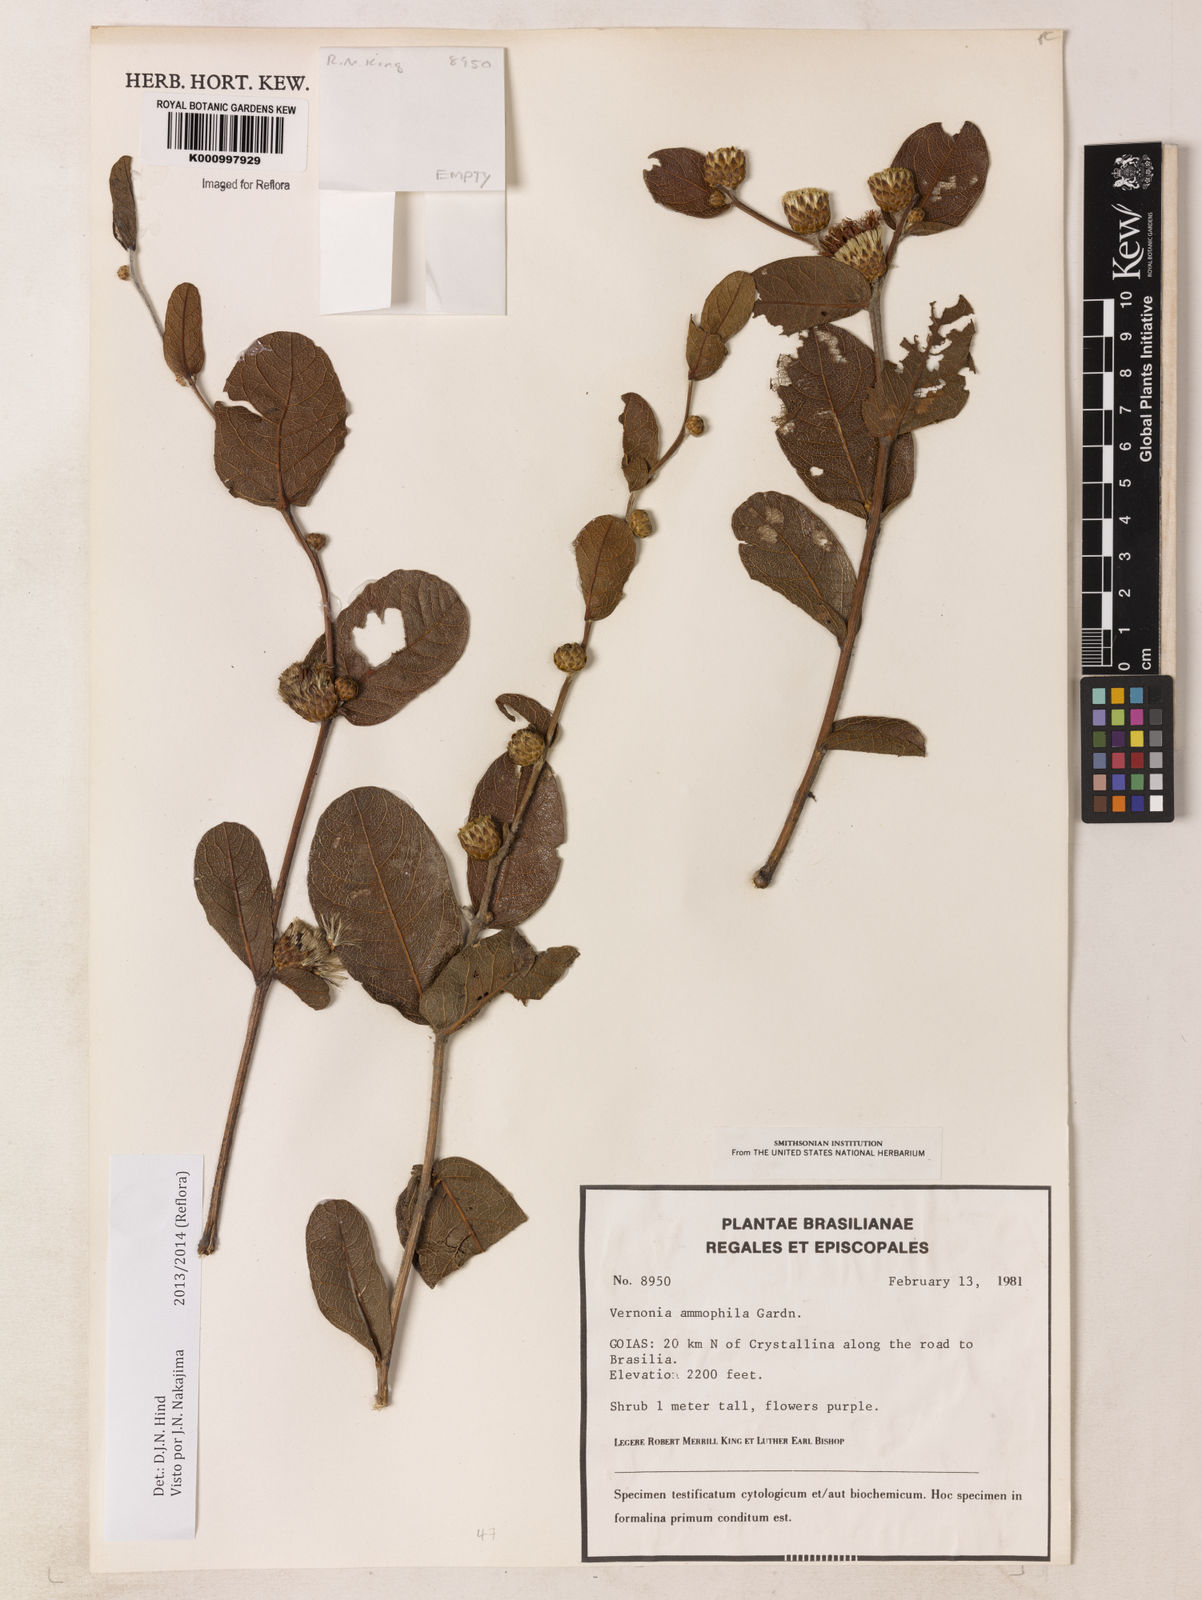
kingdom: Plantae
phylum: Tracheophyta
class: Magnoliopsida
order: Asterales
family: Asteraceae
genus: Lessingianthus
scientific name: Lessingianthus ammophilus
